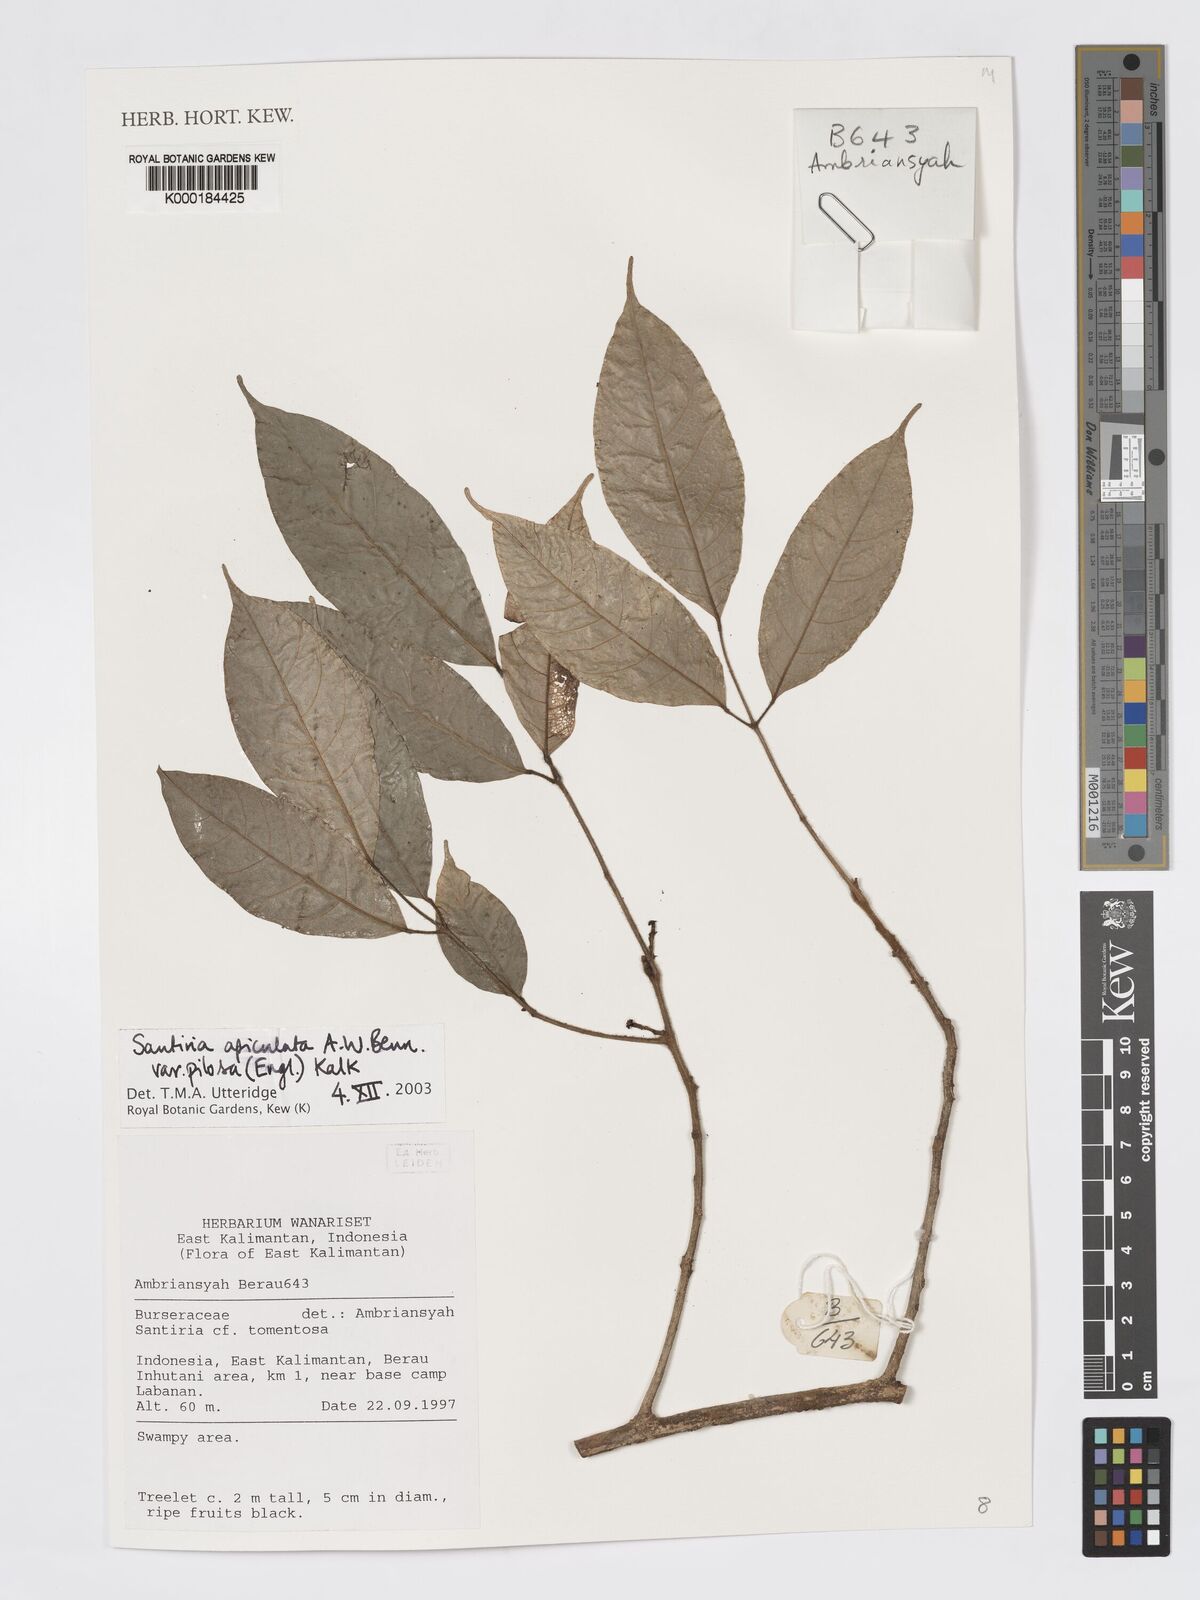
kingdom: Plantae
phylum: Tracheophyta
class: Magnoliopsida
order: Sapindales
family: Burseraceae
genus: Santiria
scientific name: Santiria apiculata
